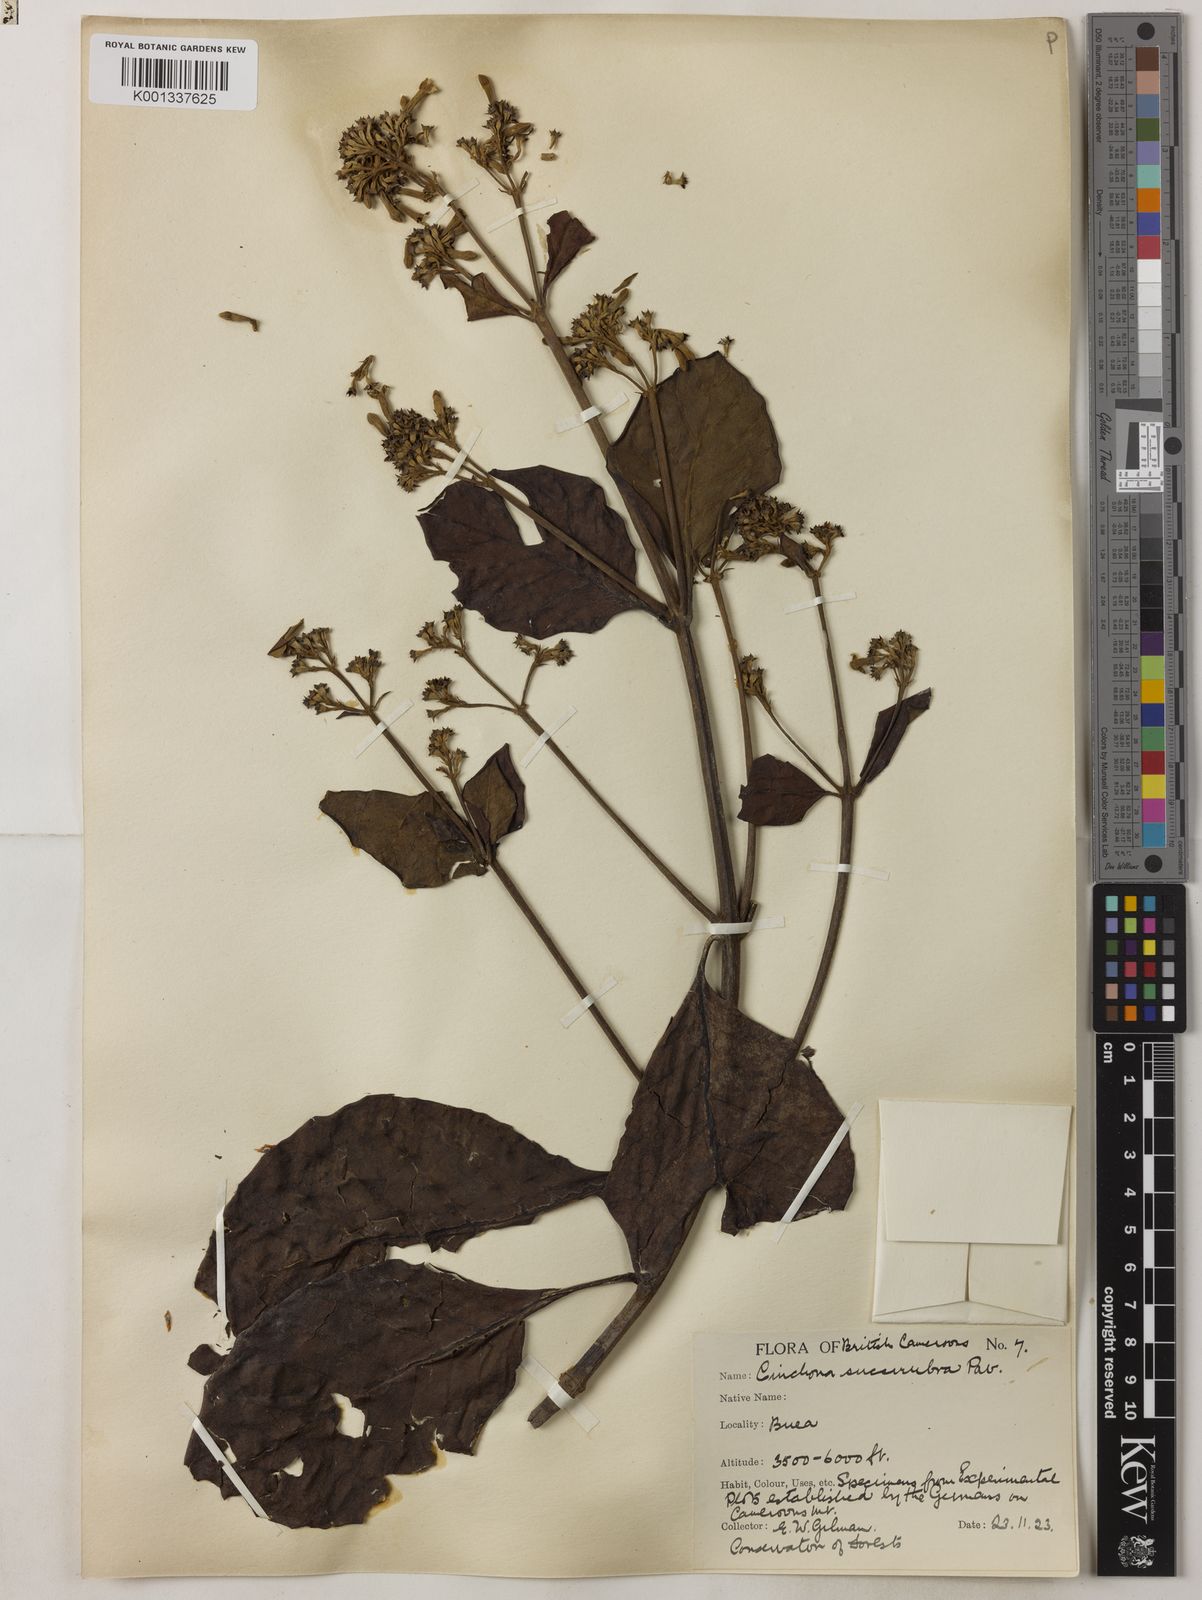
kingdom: Plantae
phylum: Tracheophyta
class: Magnoliopsida
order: Gentianales
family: Rubiaceae
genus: Cinchona
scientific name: Cinchona pubescens
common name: Quinine
